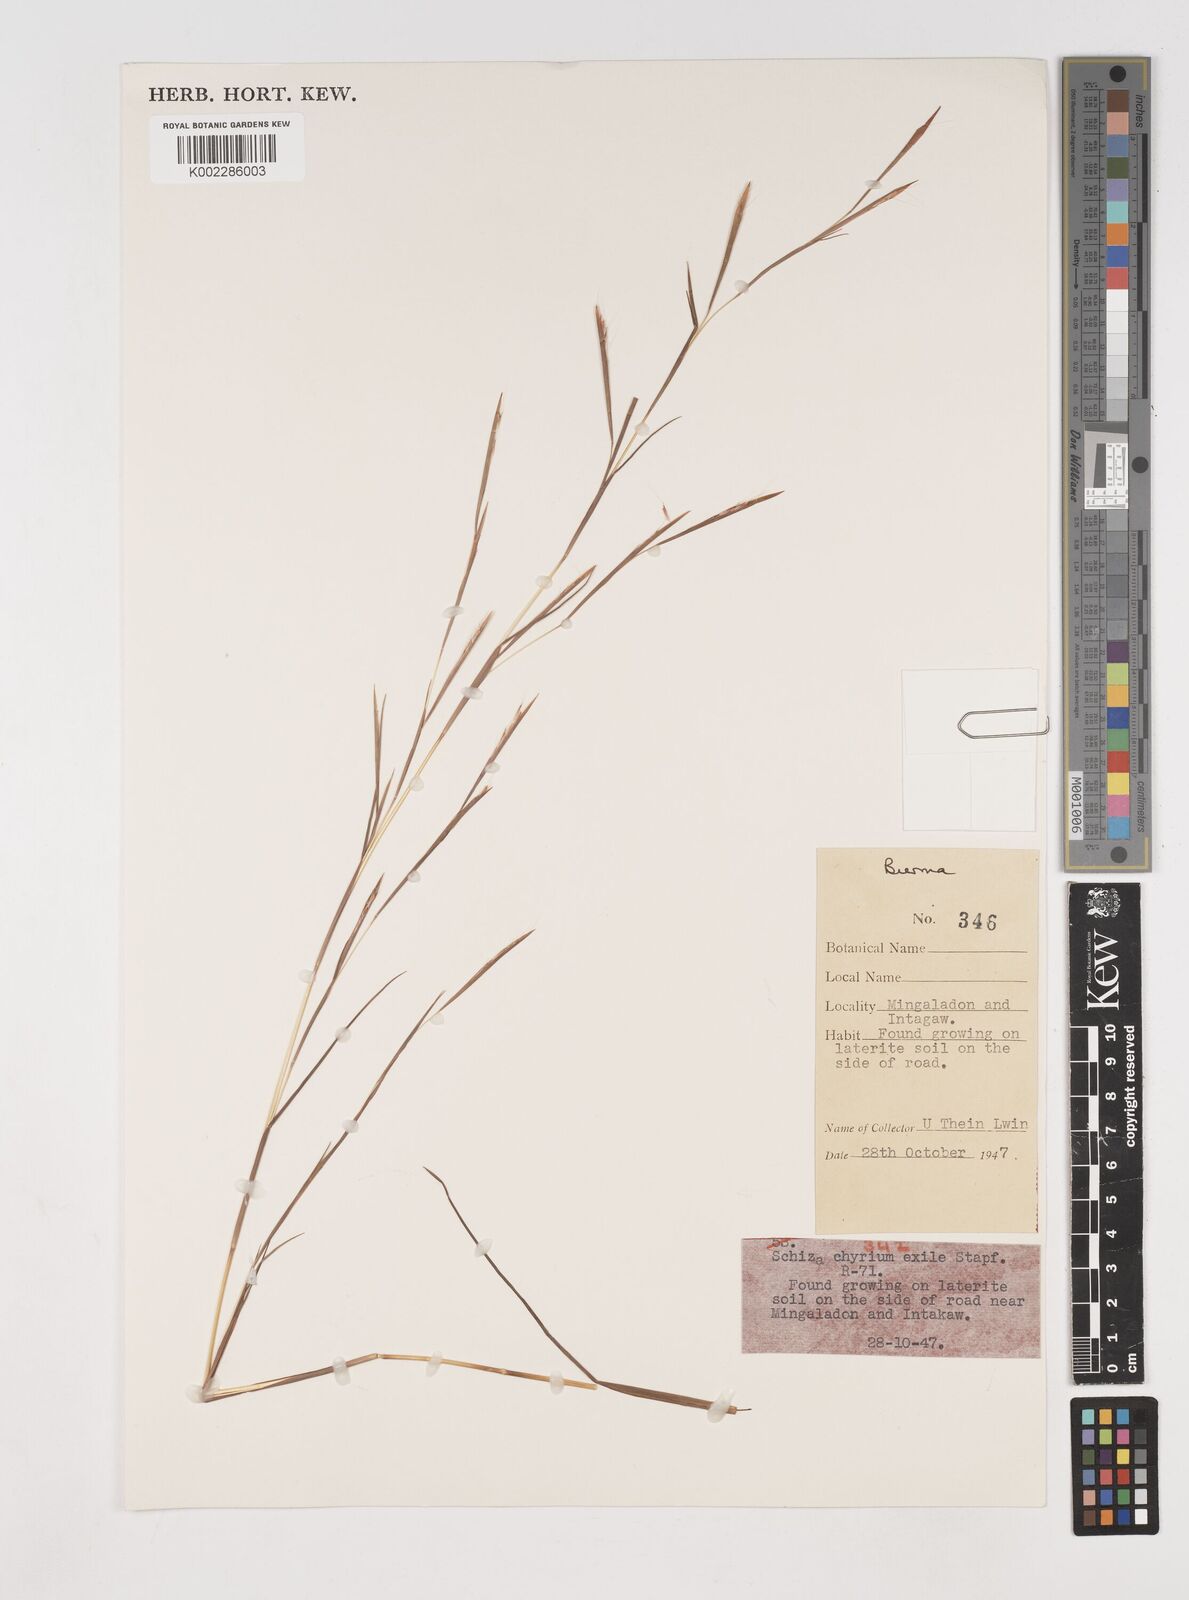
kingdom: Plantae
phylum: Tracheophyta
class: Liliopsida
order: Poales
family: Poaceae
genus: Schizachyrium
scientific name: Schizachyrium exile
